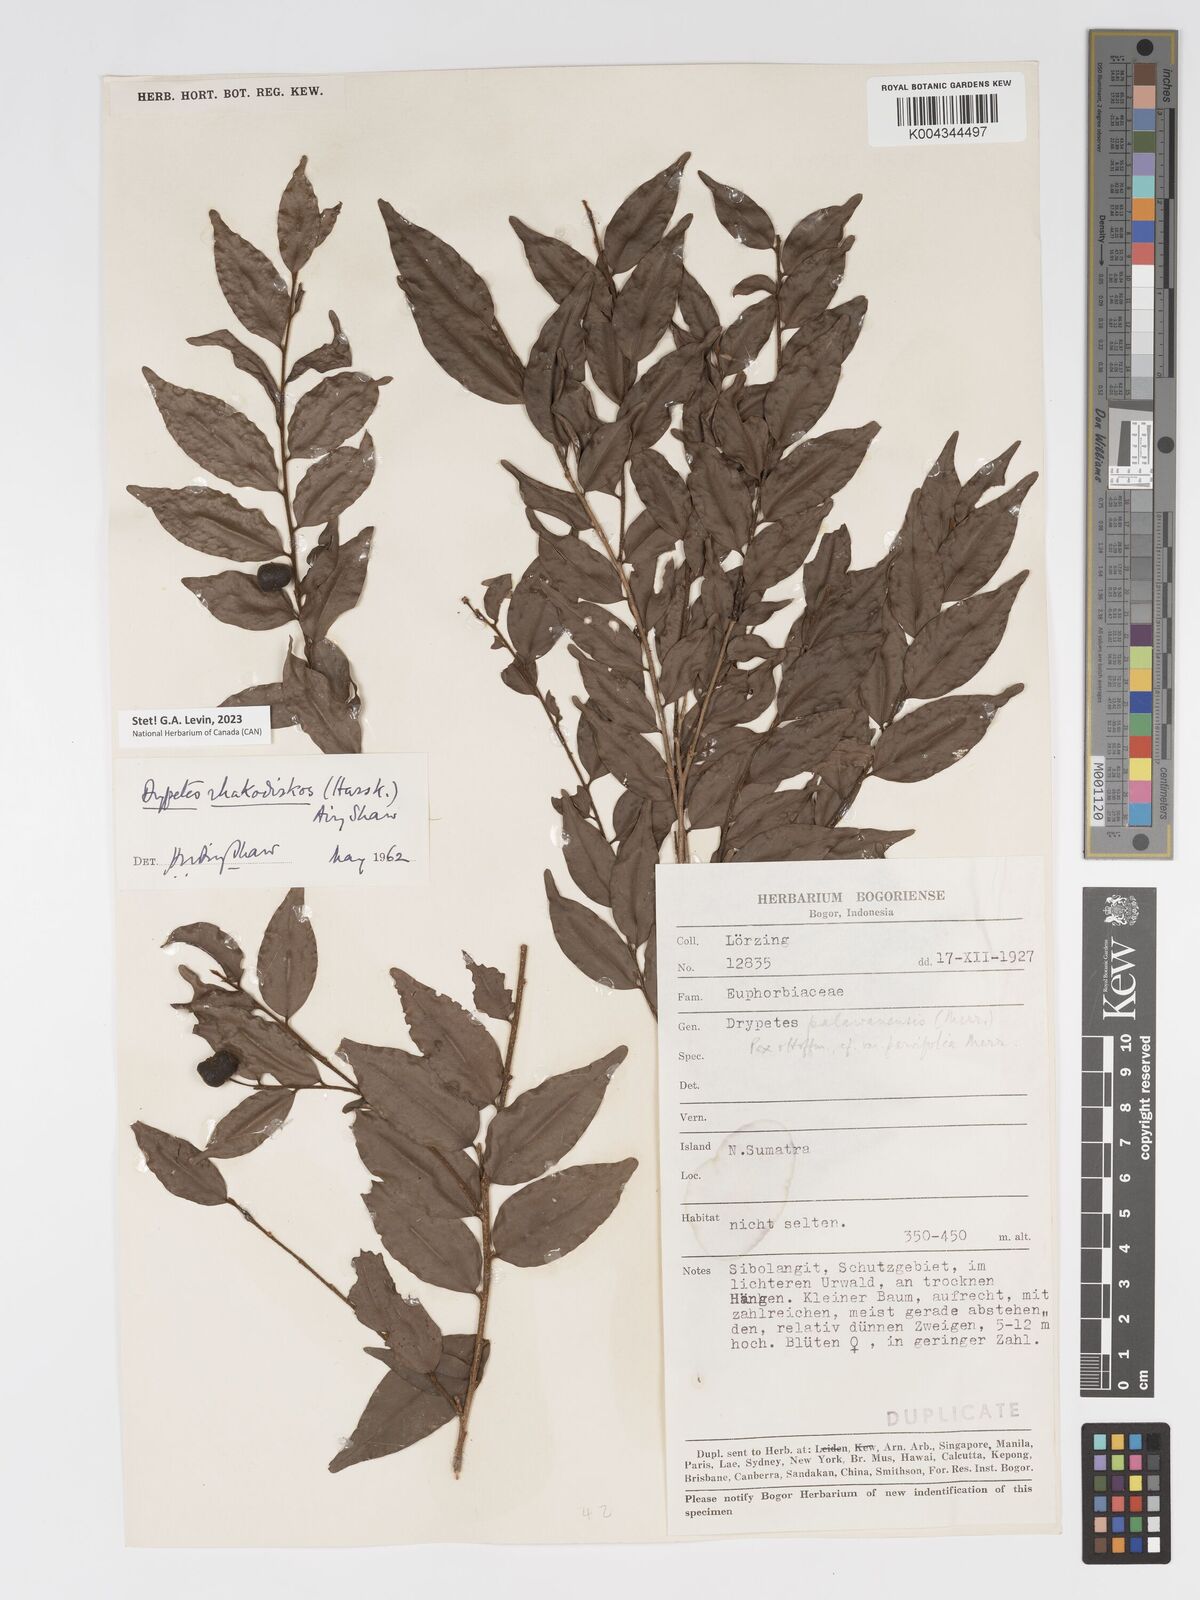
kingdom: Plantae
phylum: Tracheophyta
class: Magnoliopsida
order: Malpighiales
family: Putranjivaceae
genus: Drypetes
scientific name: Drypetes rhakodiskos
